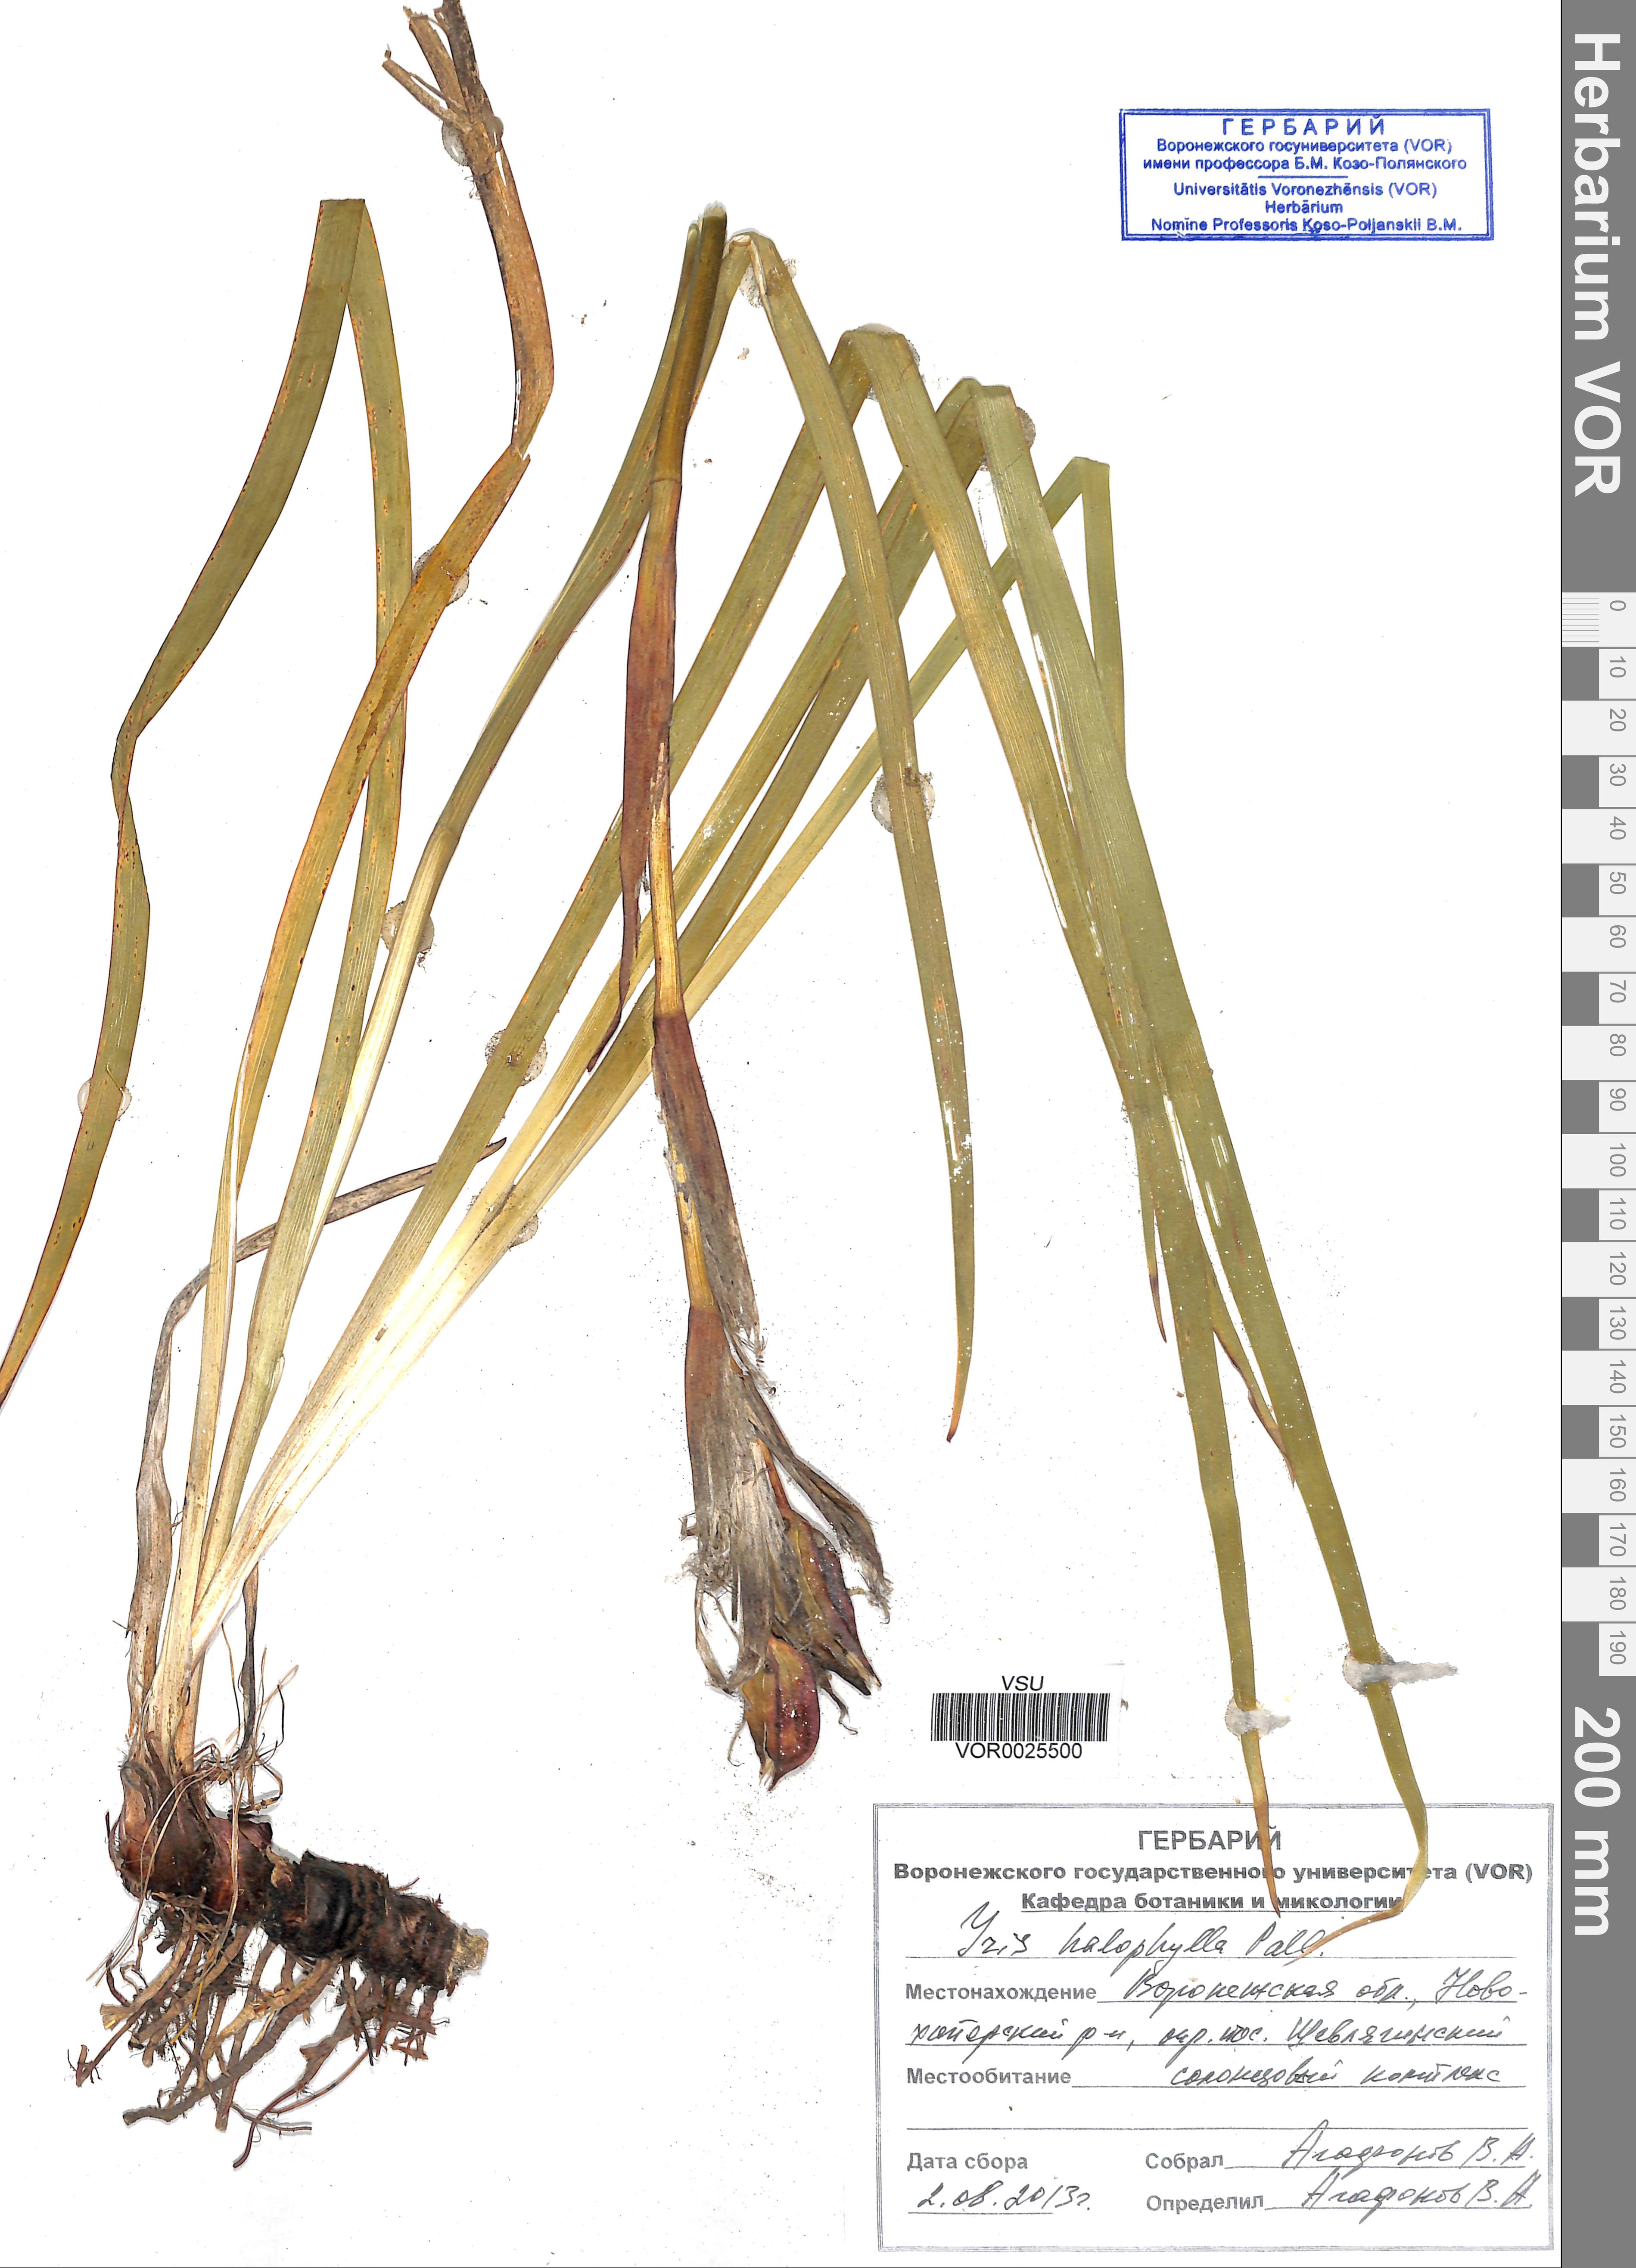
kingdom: Plantae
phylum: Tracheophyta
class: Liliopsida
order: Asparagales
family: Iridaceae
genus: Iris
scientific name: Iris halophila
